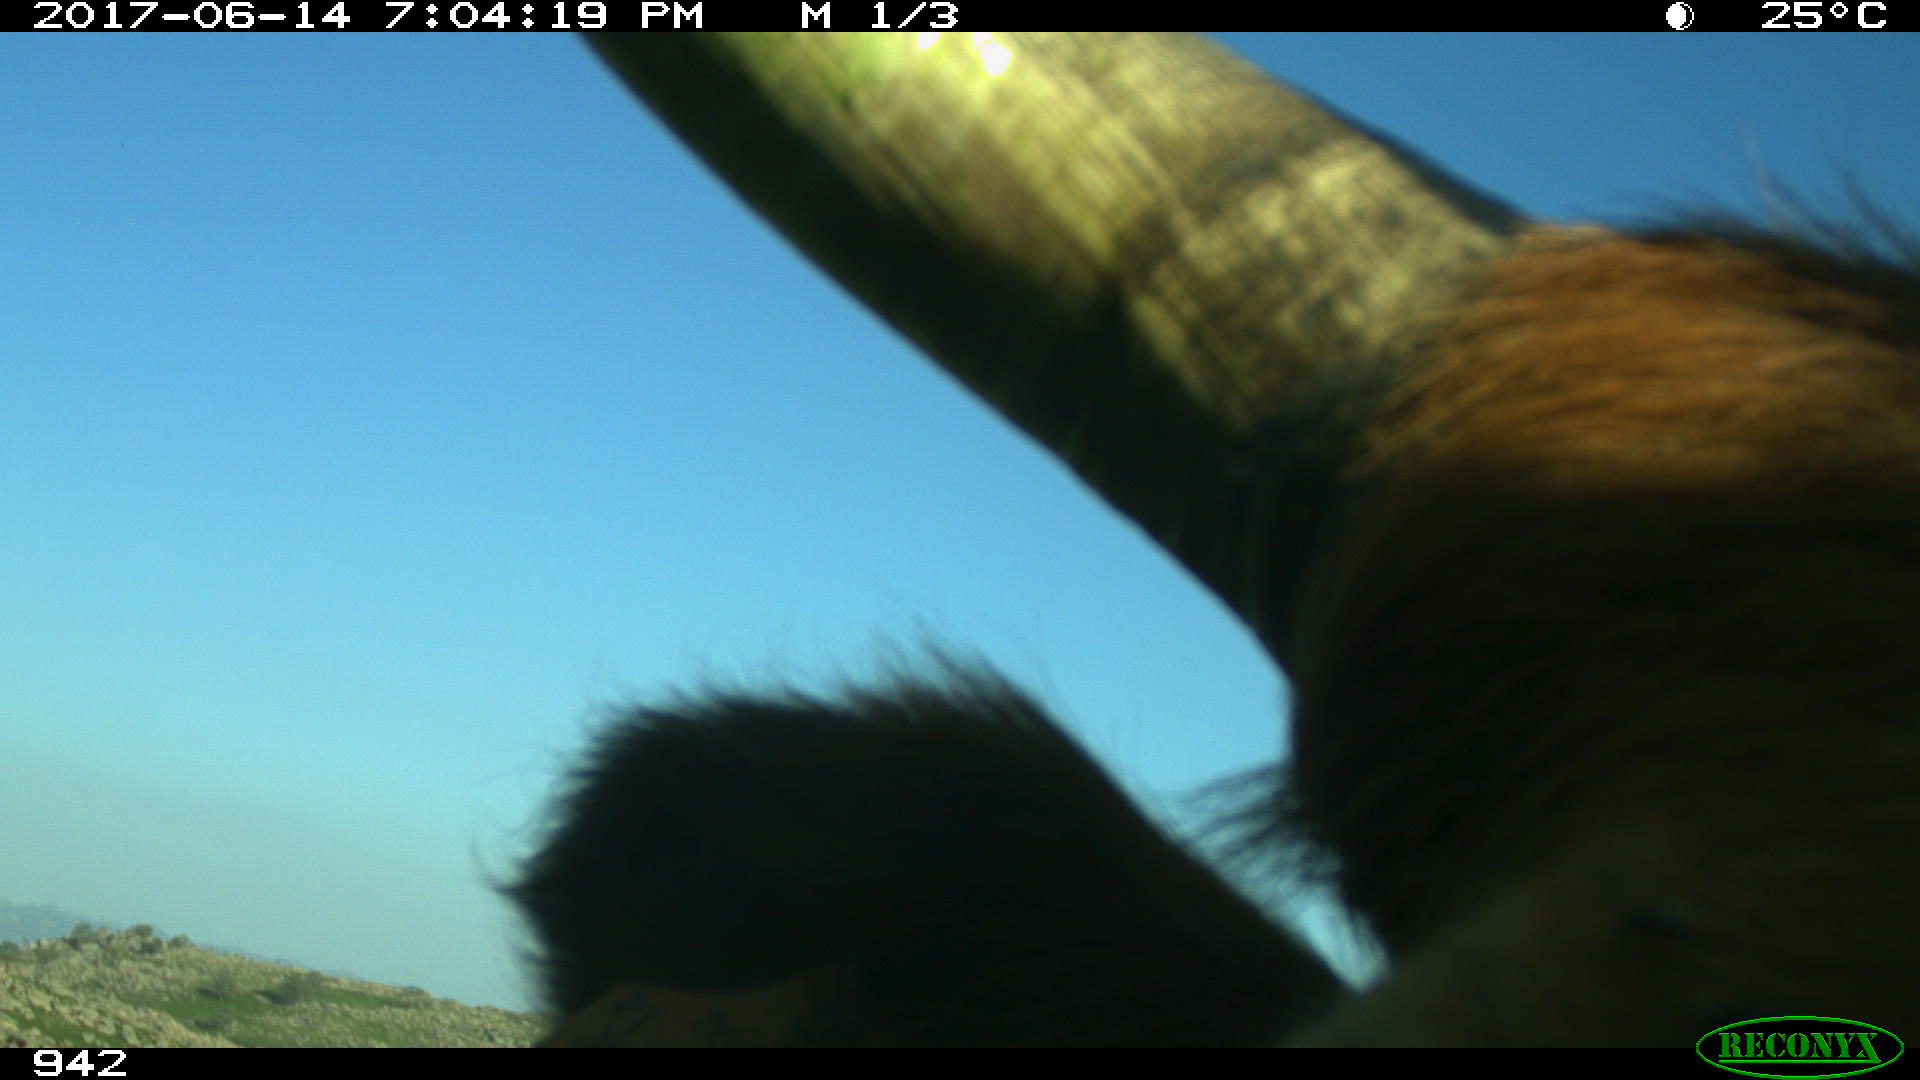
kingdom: Animalia
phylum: Chordata
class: Mammalia
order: Artiodactyla
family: Bovidae
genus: Bos
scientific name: Bos taurus
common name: Domesticated cattle
